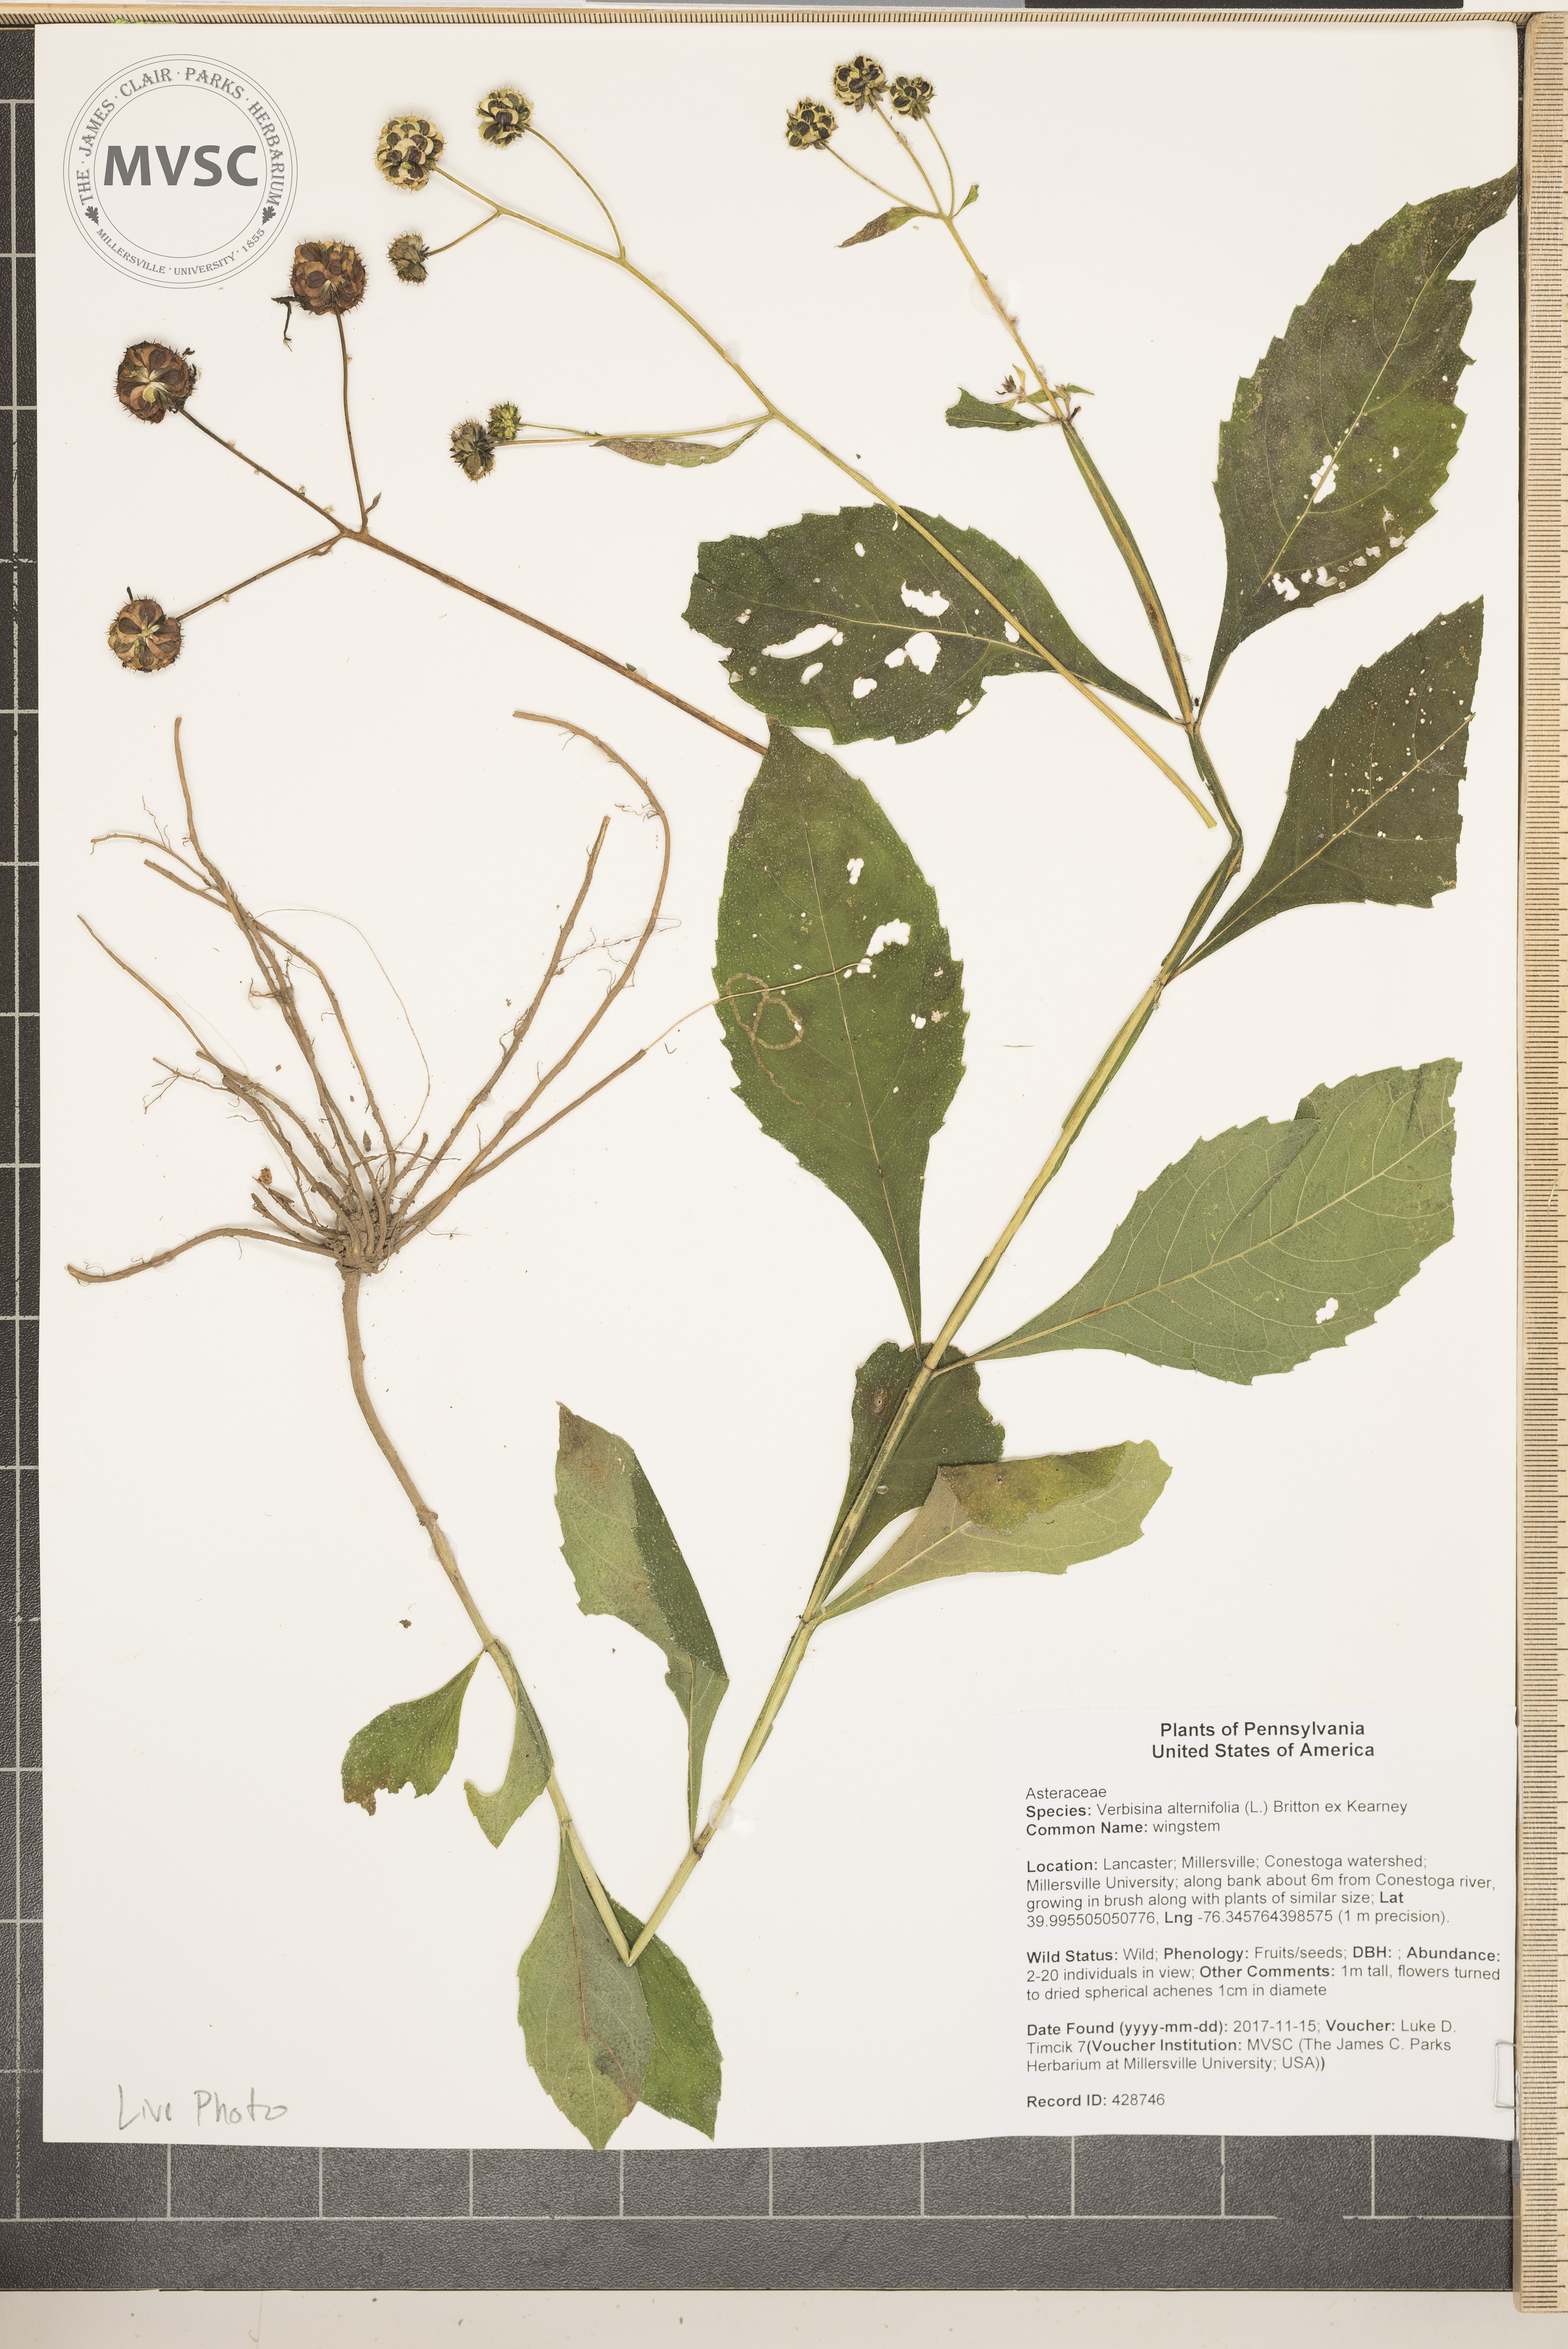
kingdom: Plantae
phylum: Tracheophyta
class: Magnoliopsida
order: Asterales
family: Asteraceae
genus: Verbesina
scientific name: Verbesina alternifolia
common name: wingstem
